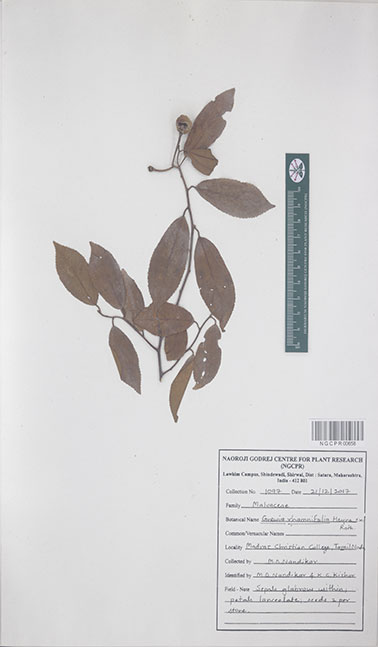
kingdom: Plantae
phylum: Tracheophyta
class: Magnoliopsida
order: Malvales
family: Malvaceae
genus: Grewia
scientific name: Grewia rhamnifolia
